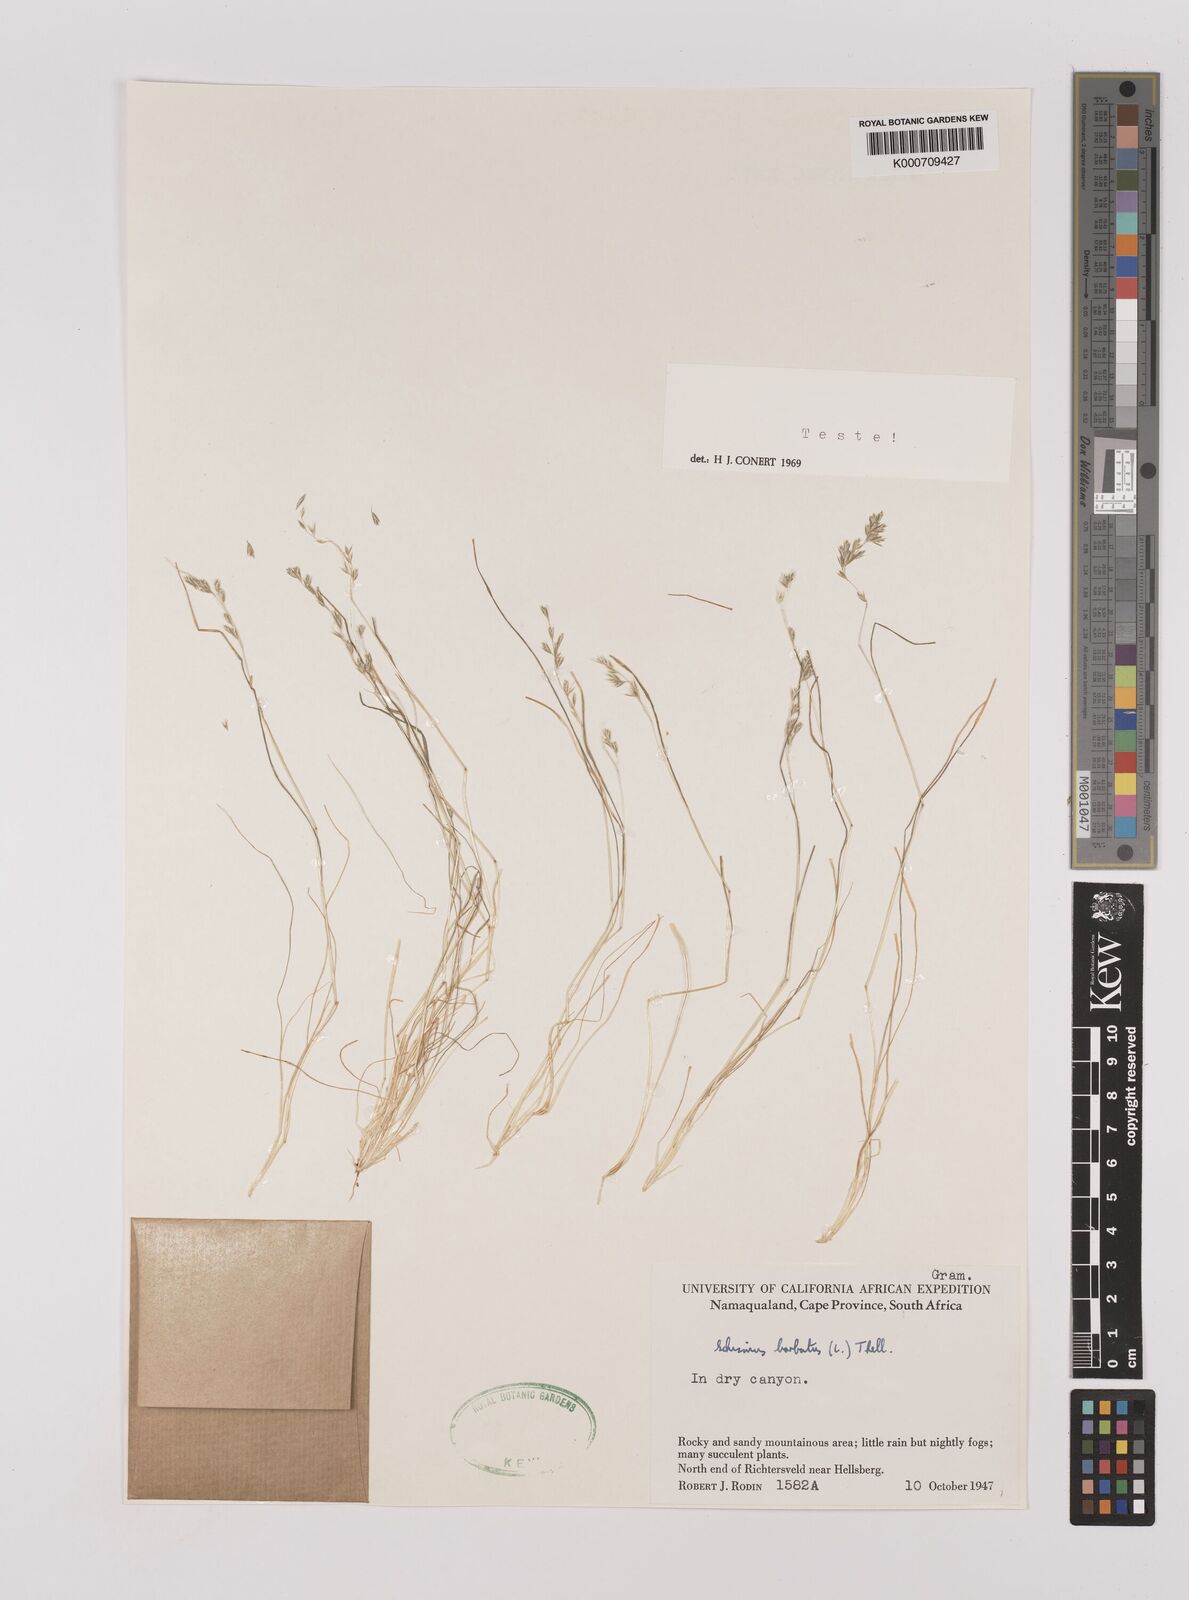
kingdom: Plantae
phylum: Tracheophyta
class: Liliopsida
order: Poales
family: Poaceae
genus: Schismus
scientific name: Schismus barbatus
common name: Kelch-grass
